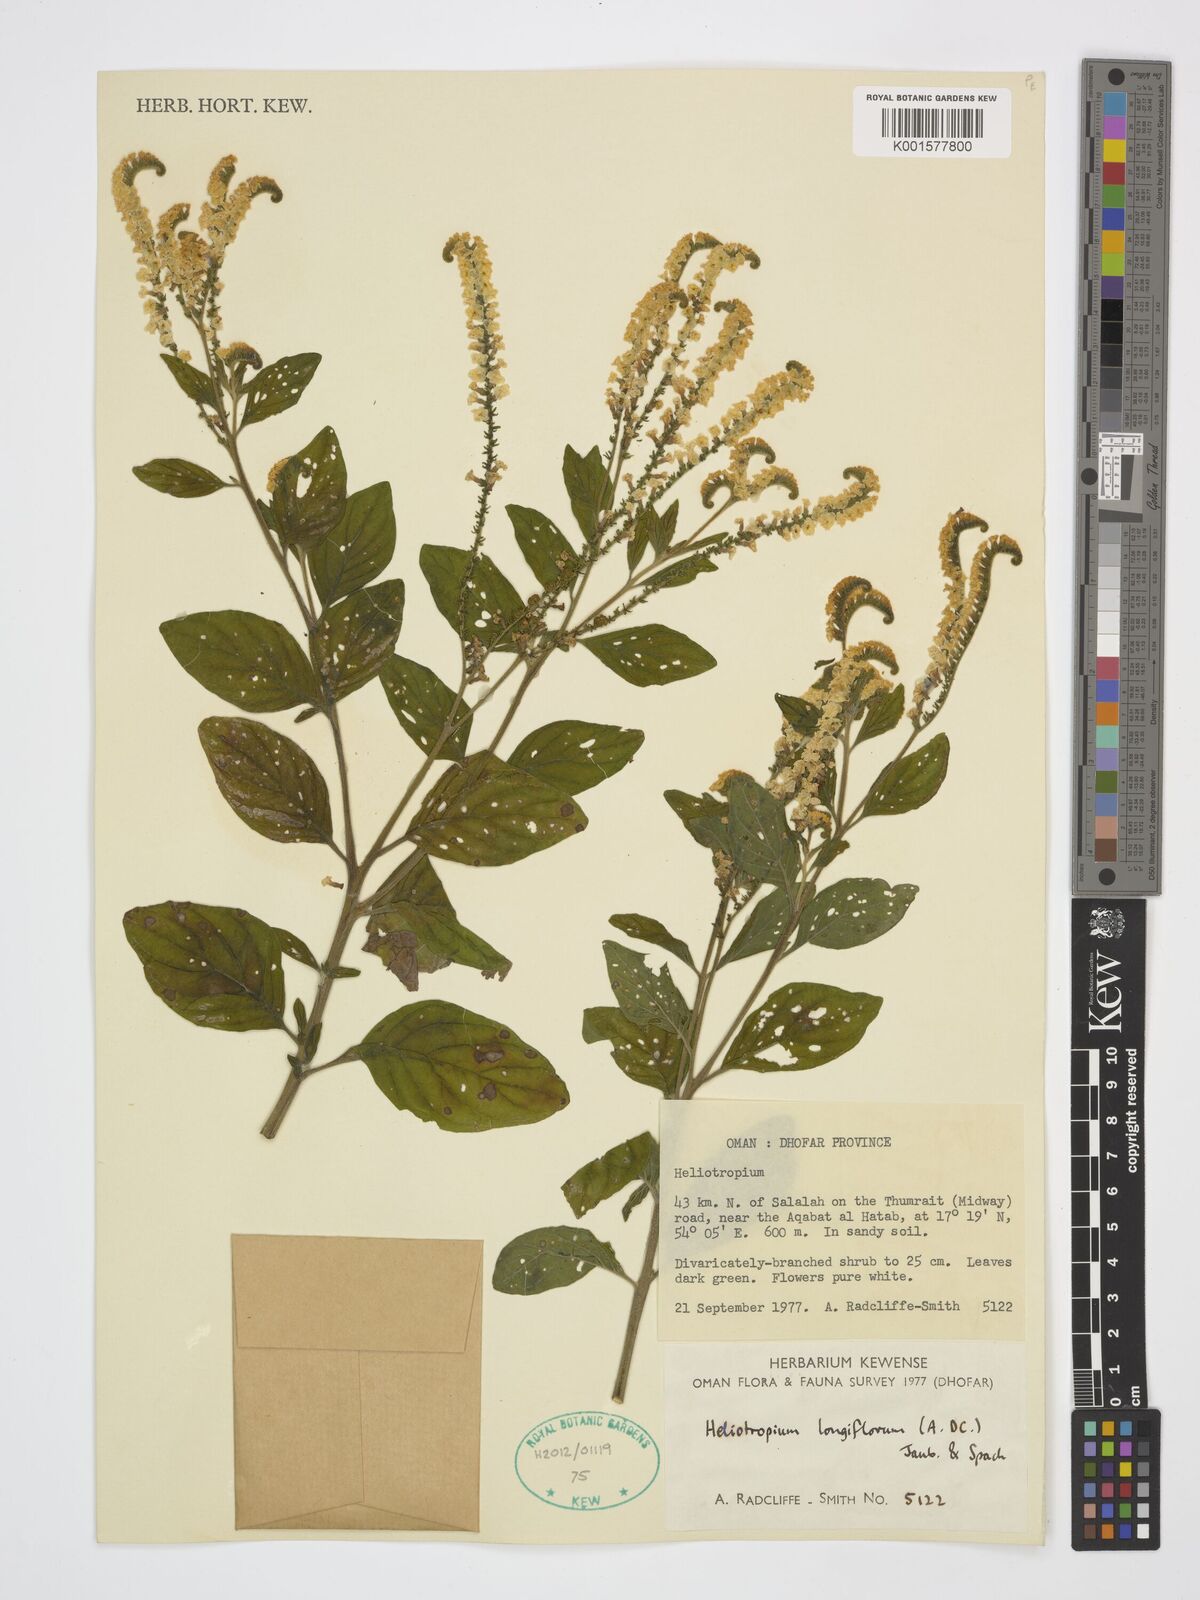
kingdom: Plantae
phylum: Tracheophyta
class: Magnoliopsida
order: Boraginales
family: Heliotropiaceae
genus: Heliotropium
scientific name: Heliotropium longiflorum
